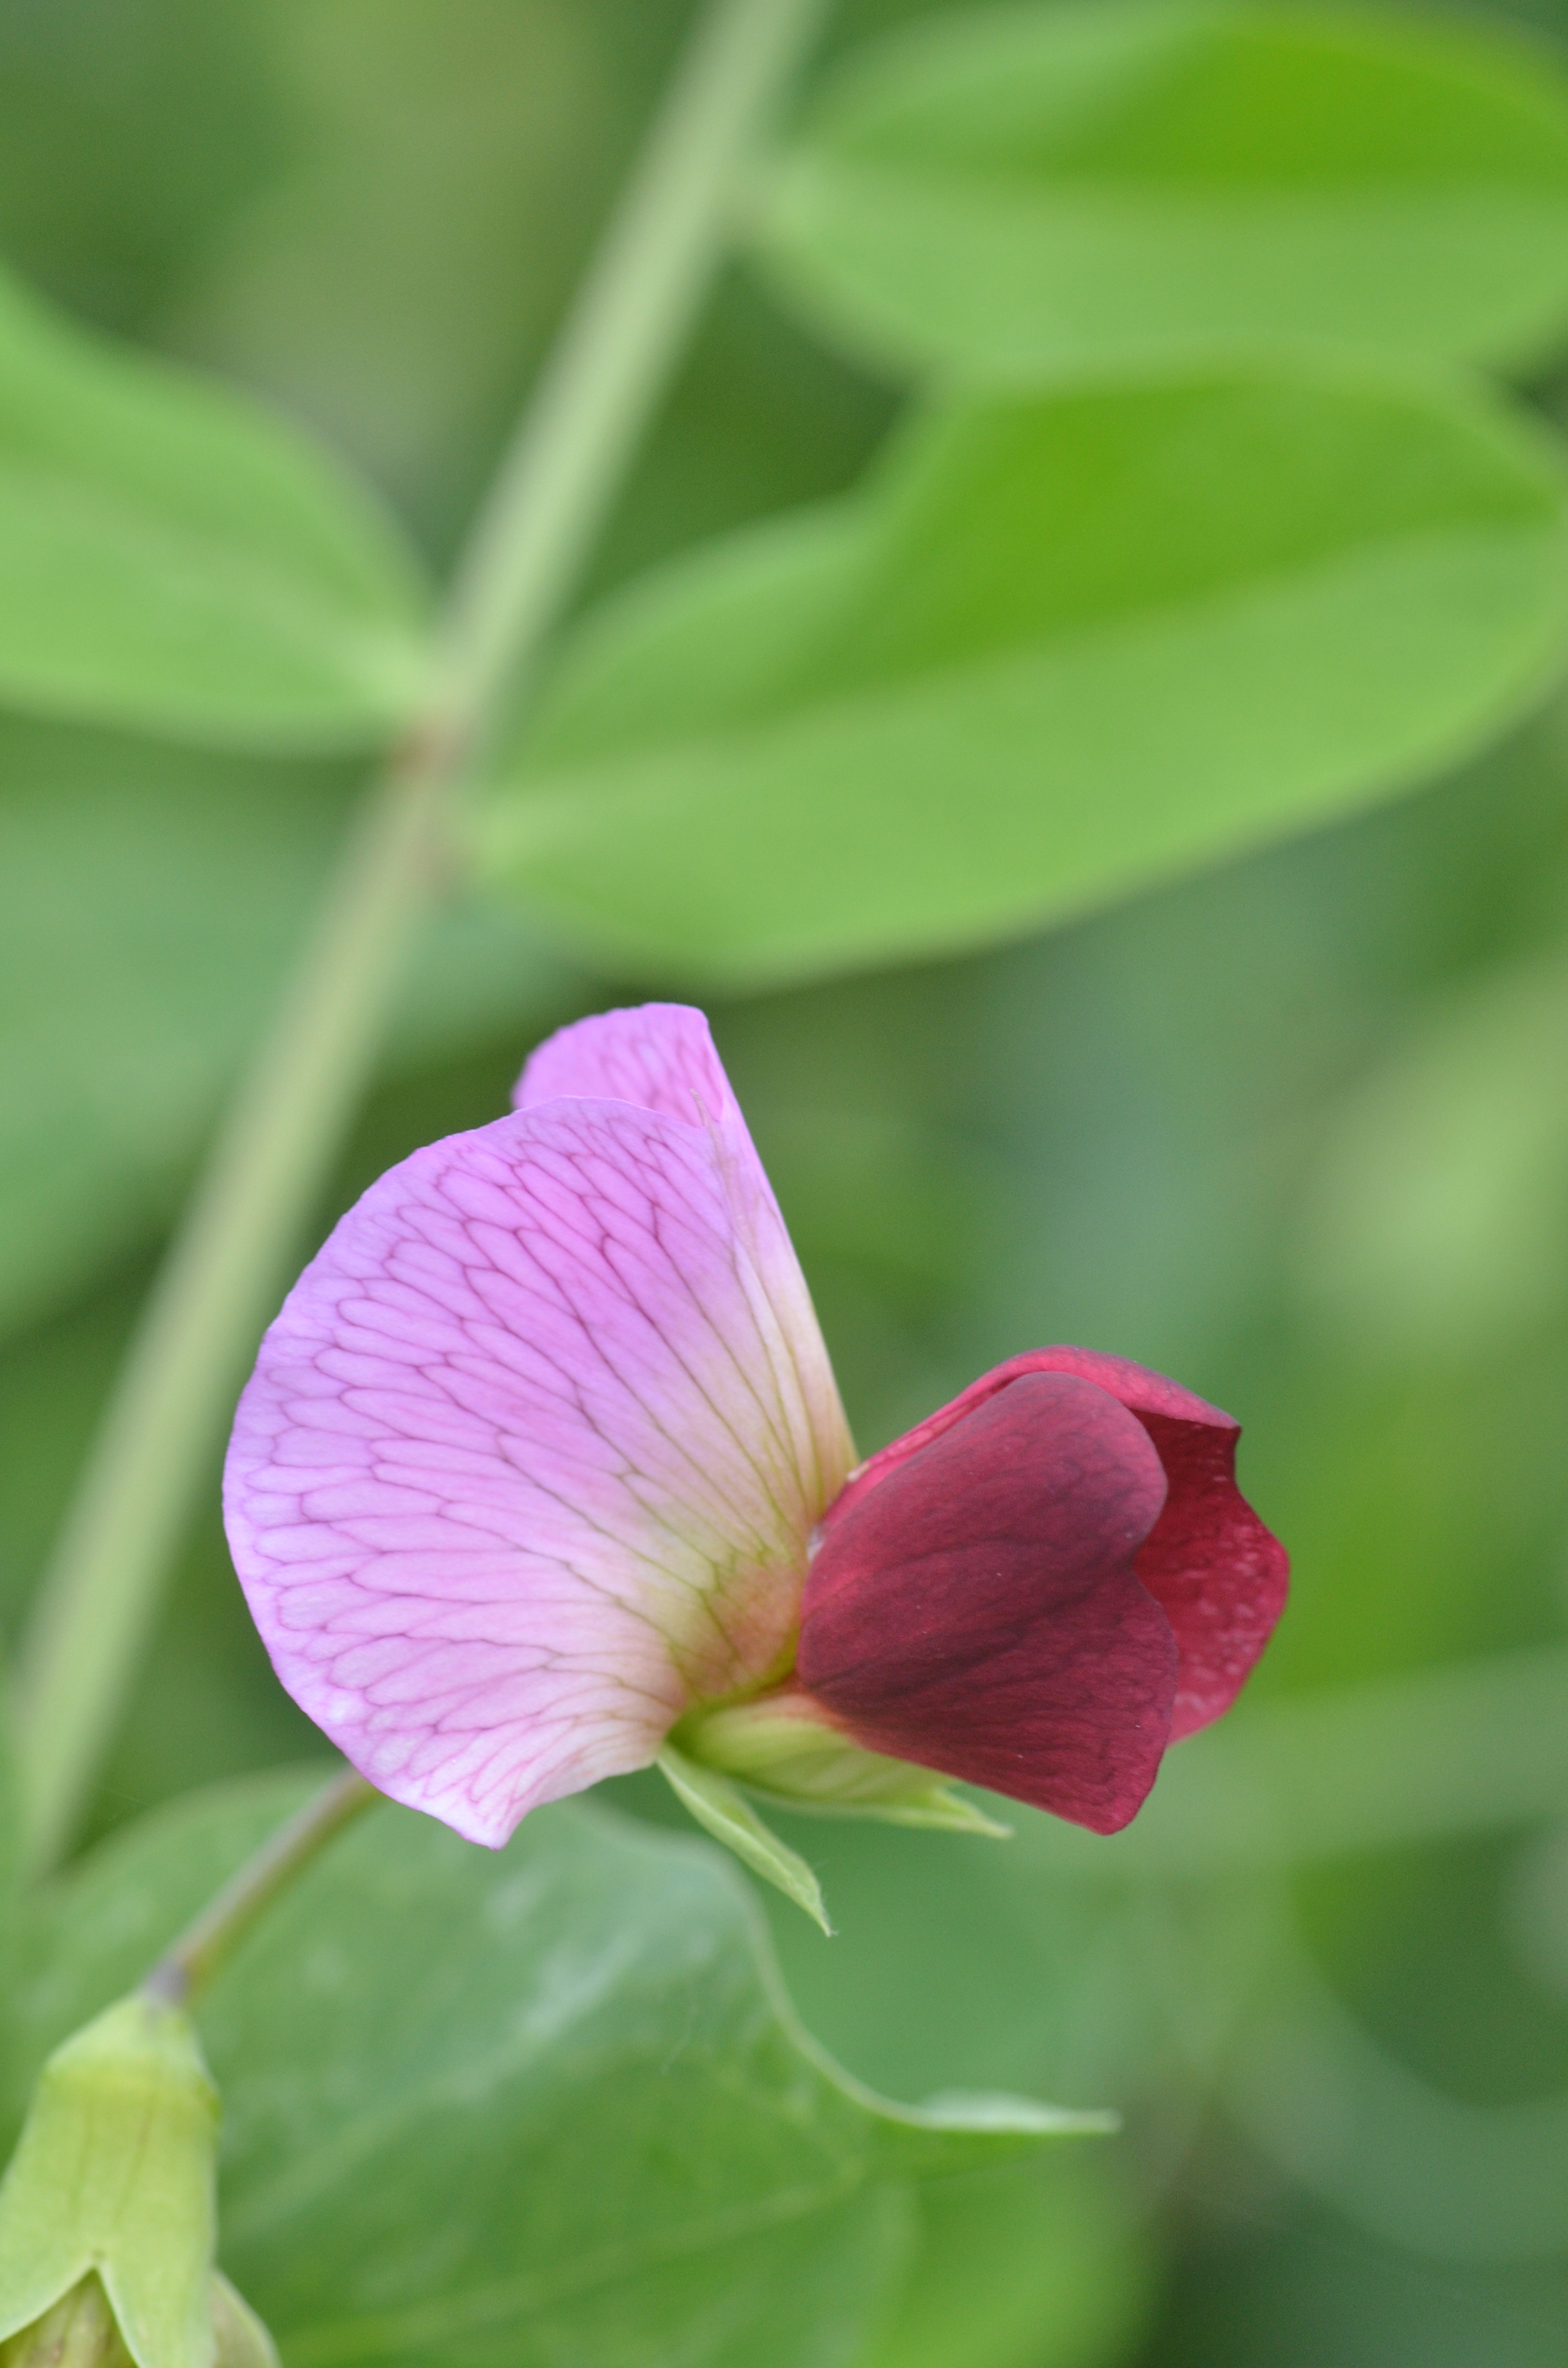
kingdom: Plantae
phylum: Tracheophyta
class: Magnoliopsida
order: Fabales
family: Fabaceae
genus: Lathyrus
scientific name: Lathyrus oleraceus
